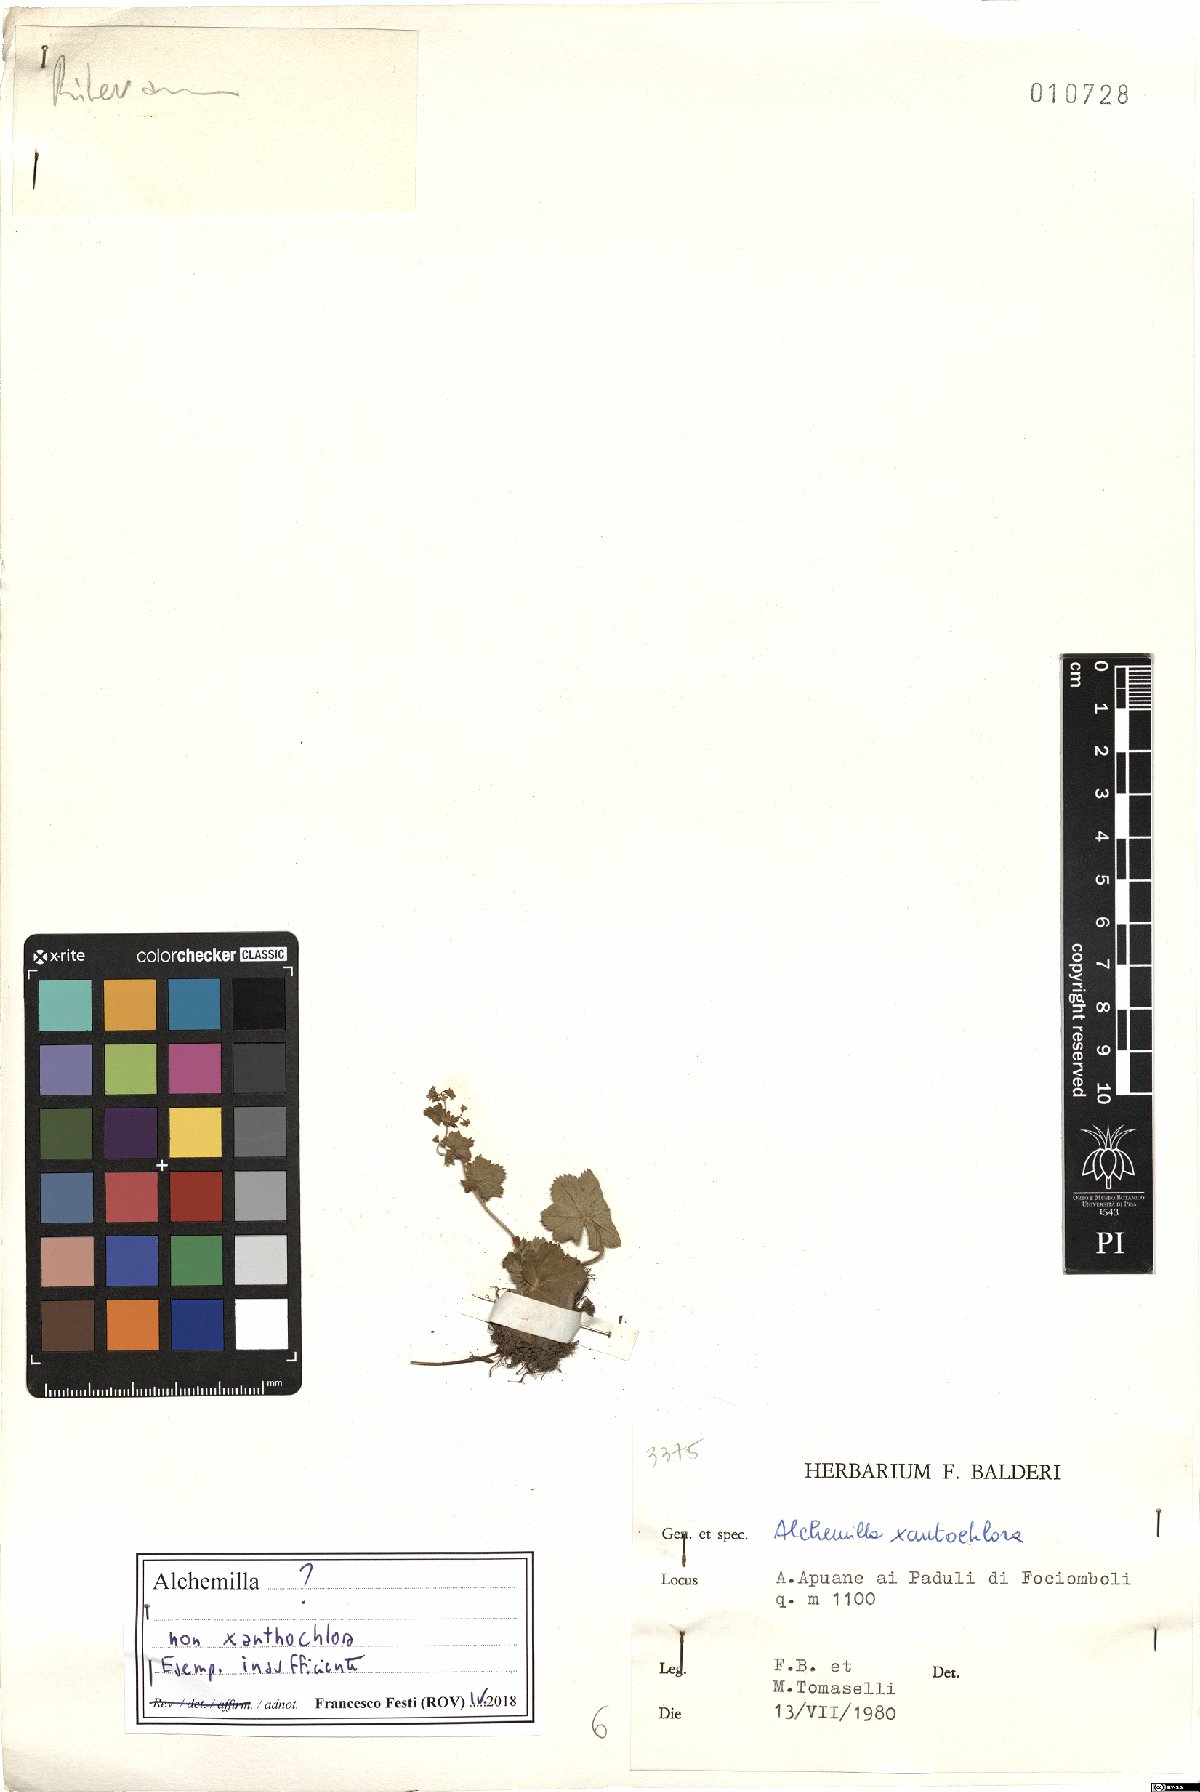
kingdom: Plantae
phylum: Tracheophyta
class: Magnoliopsida
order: Rosales
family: Rosaceae
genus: Alchemilla
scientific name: Alchemilla
